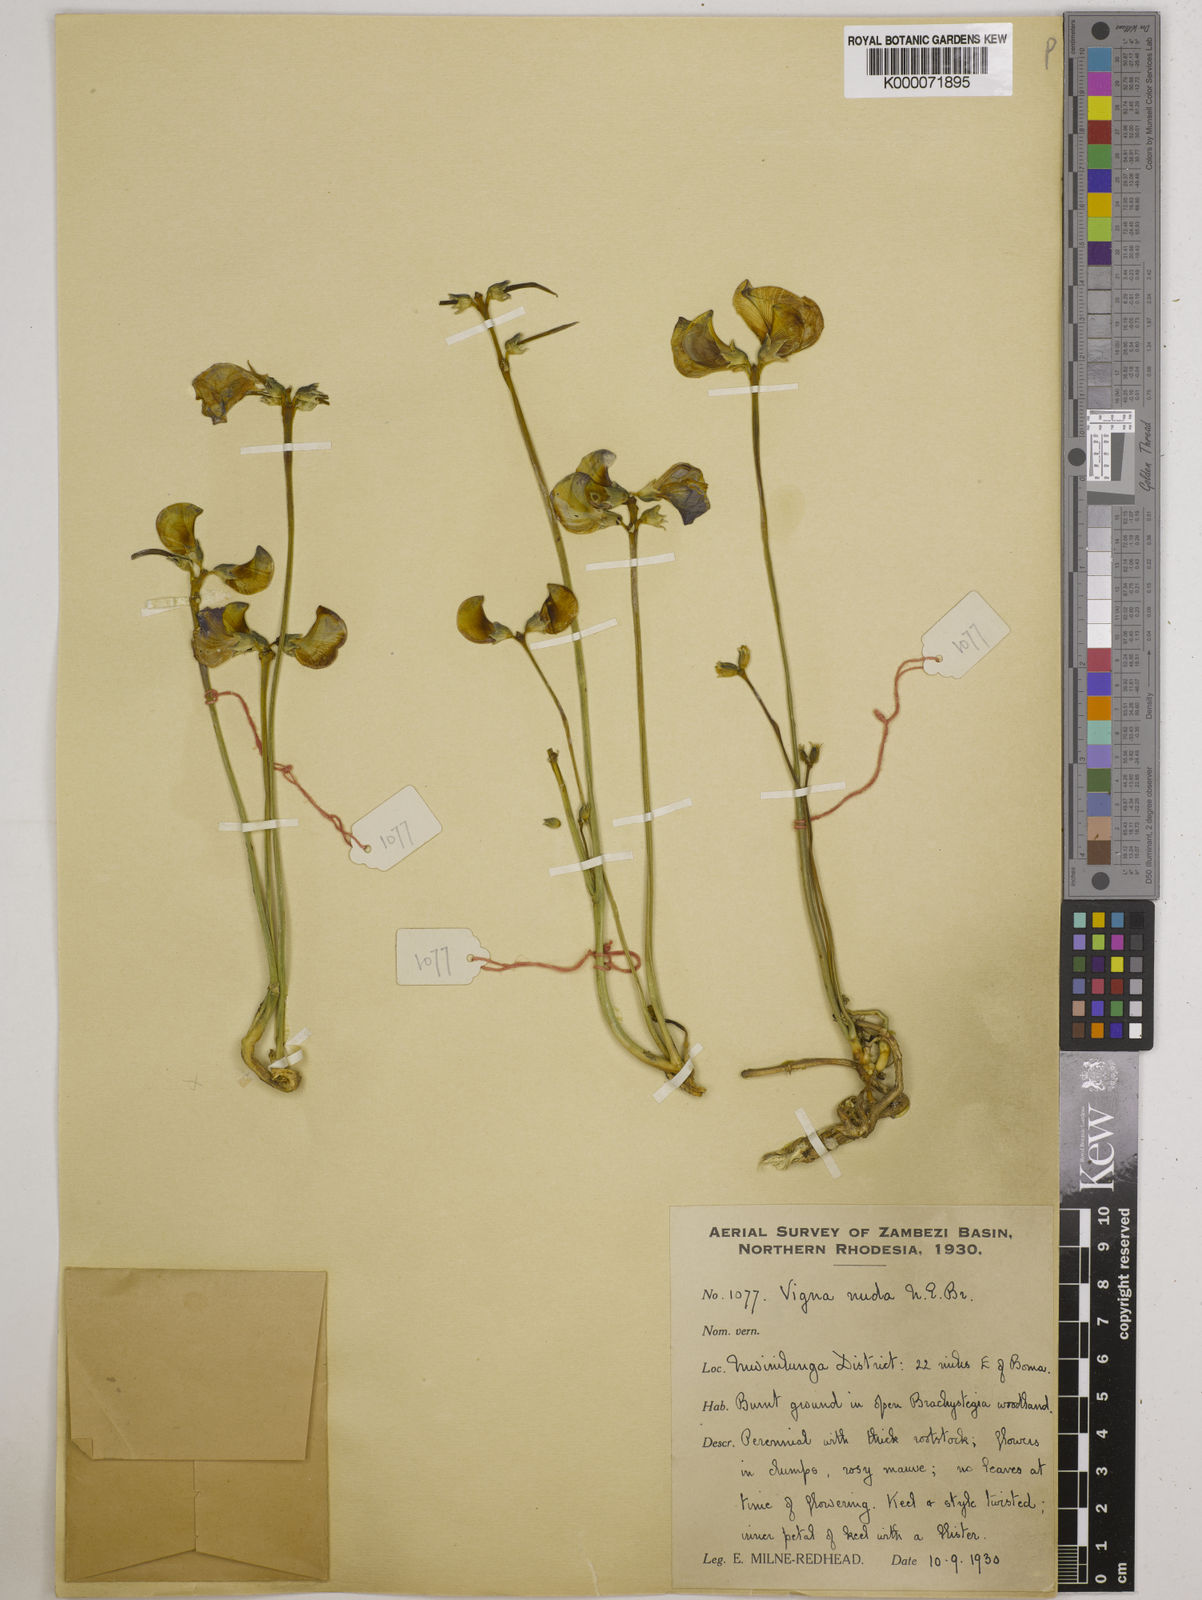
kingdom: Plantae
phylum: Tracheophyta
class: Magnoliopsida
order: Fabales
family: Fabaceae
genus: Vigna
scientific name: Vigna antunesii
